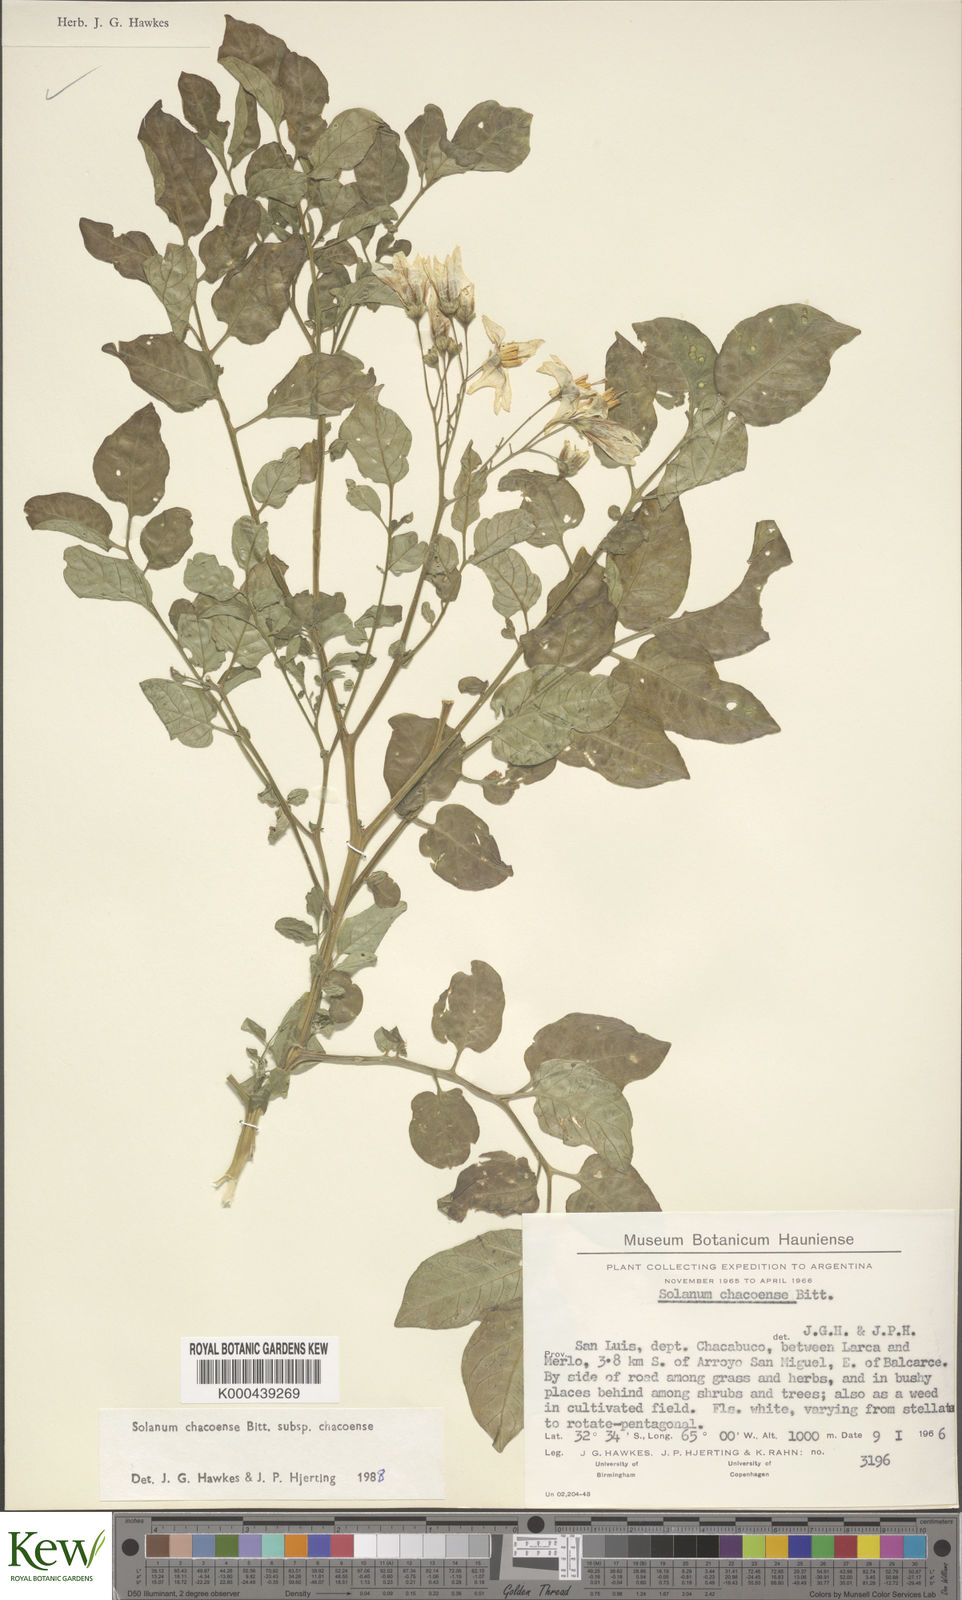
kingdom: Plantae
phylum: Tracheophyta
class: Magnoliopsida
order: Solanales
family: Solanaceae
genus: Solanum
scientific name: Solanum chacoense
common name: Chaco potato
